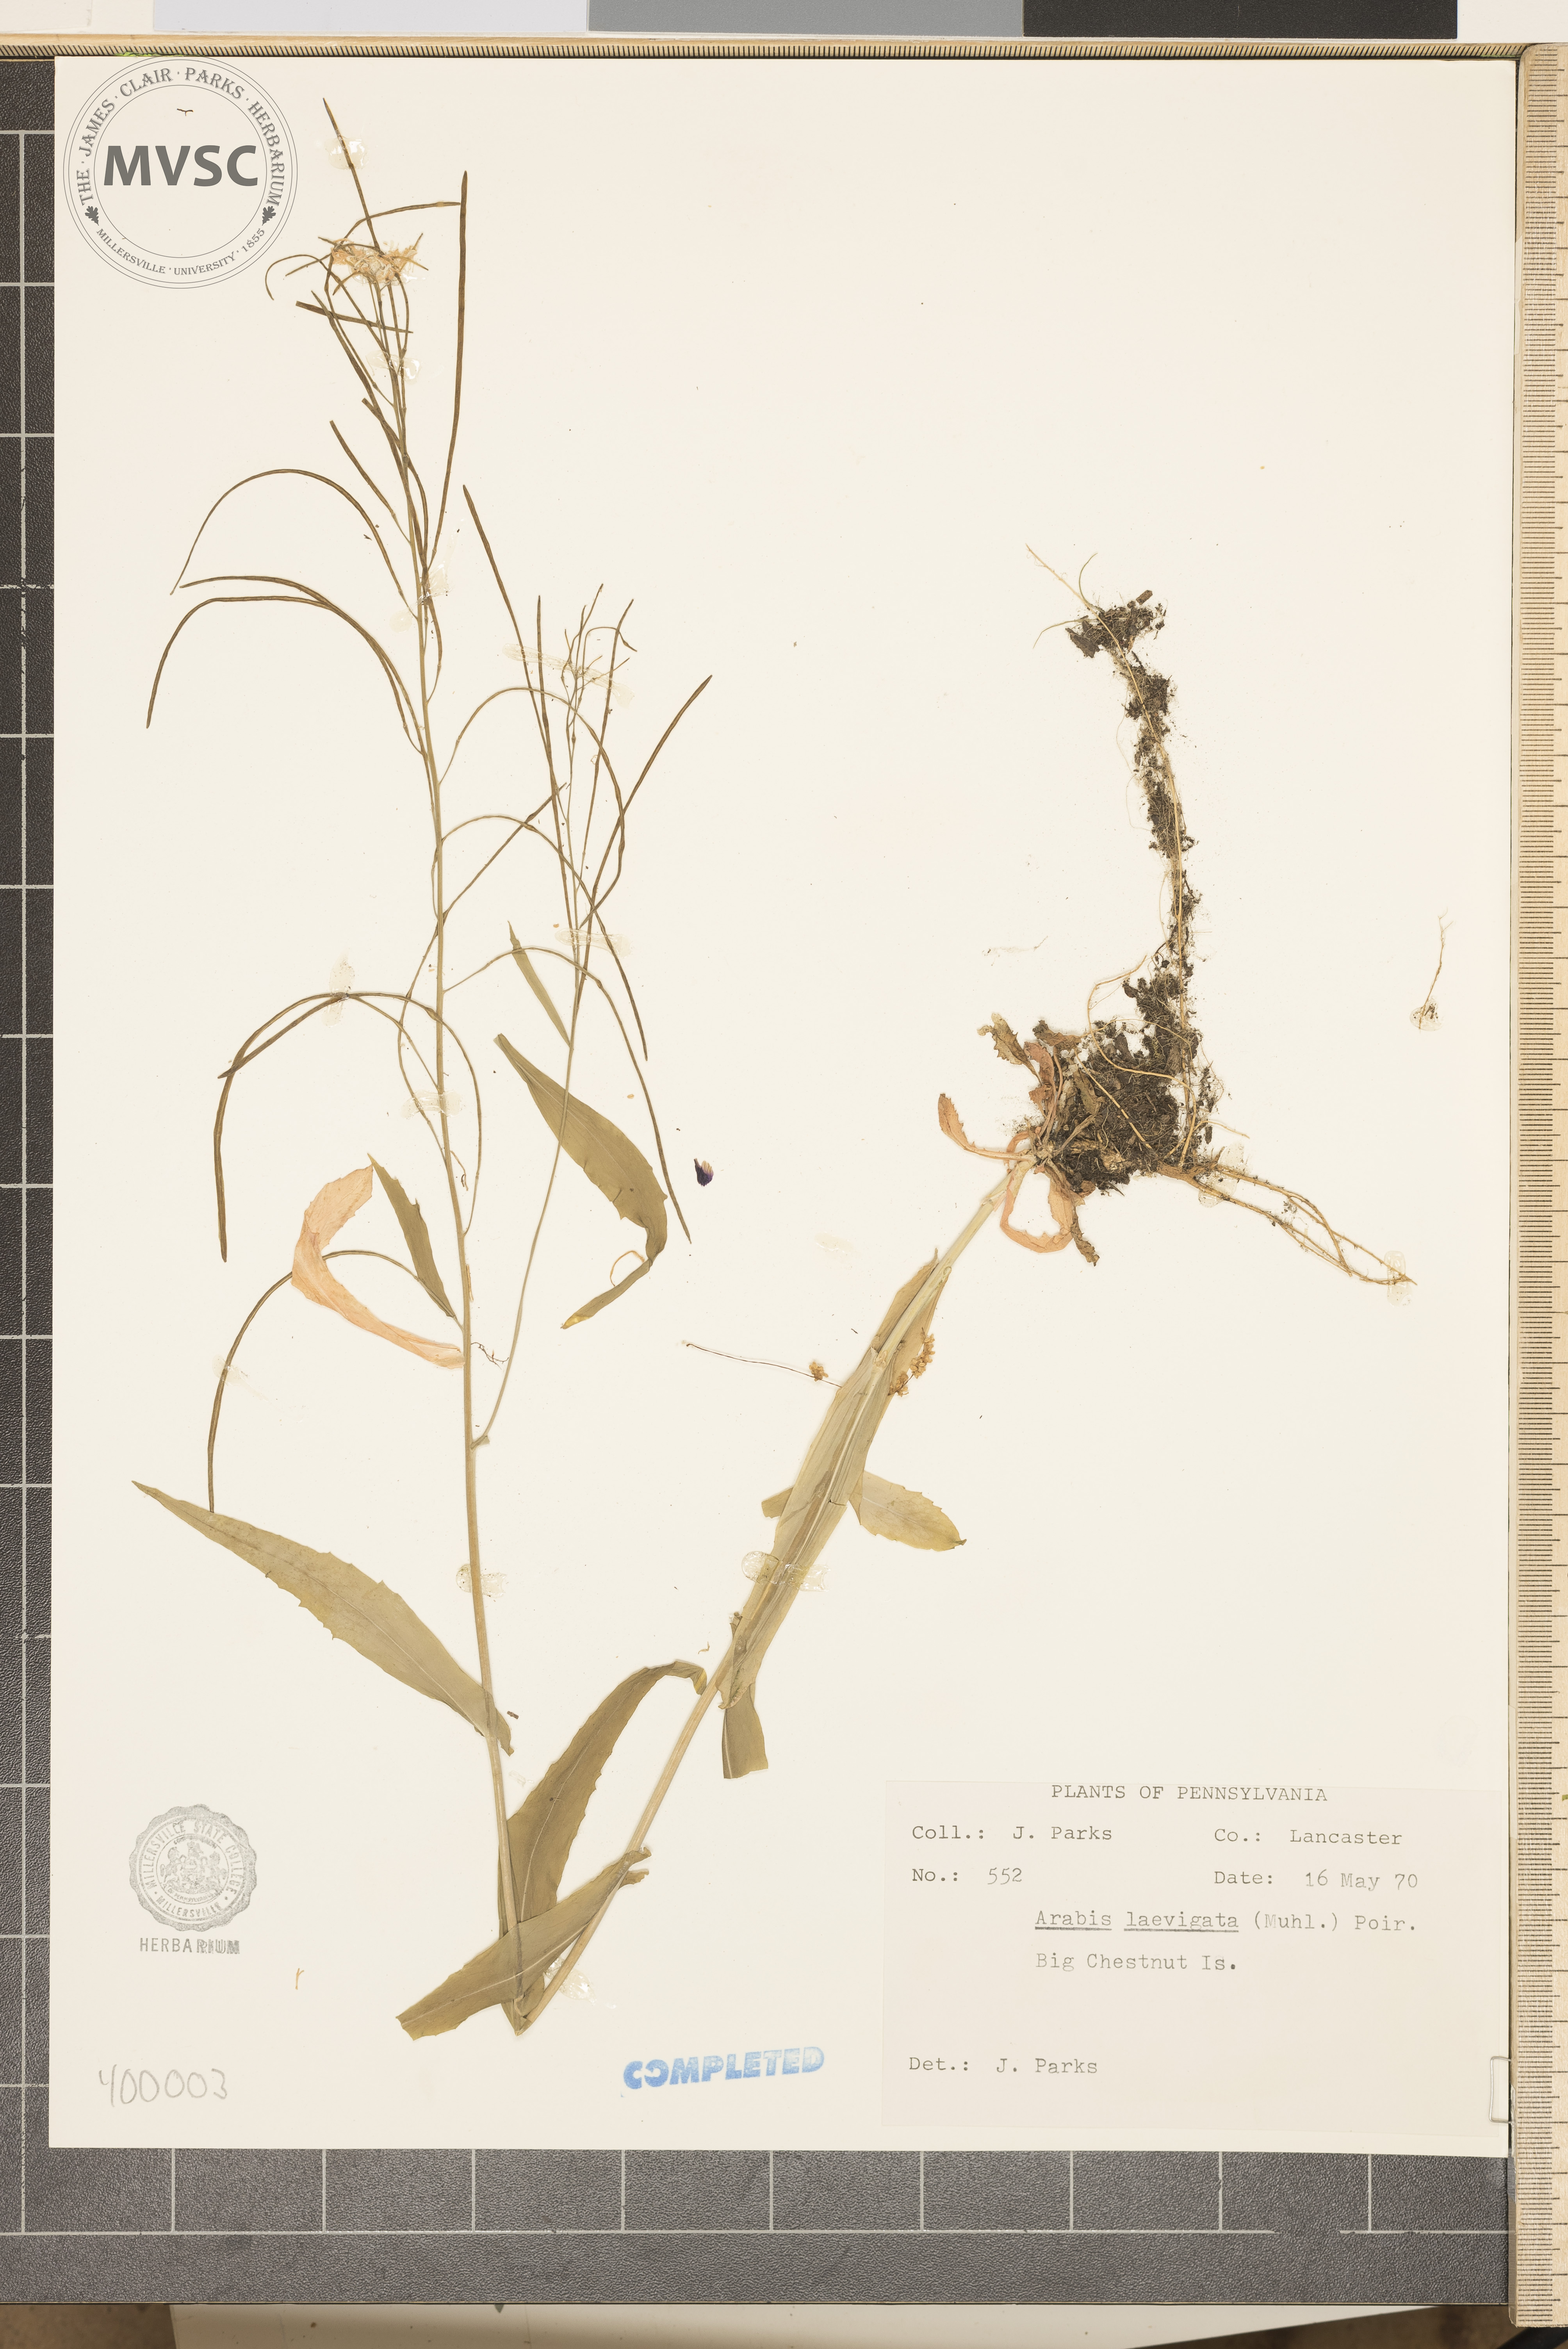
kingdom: Plantae
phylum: Tracheophyta
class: Magnoliopsida
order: Brassicales
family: Brassicaceae
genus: Borodinia
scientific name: Borodinia laevigata
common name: Smooth rockcress
